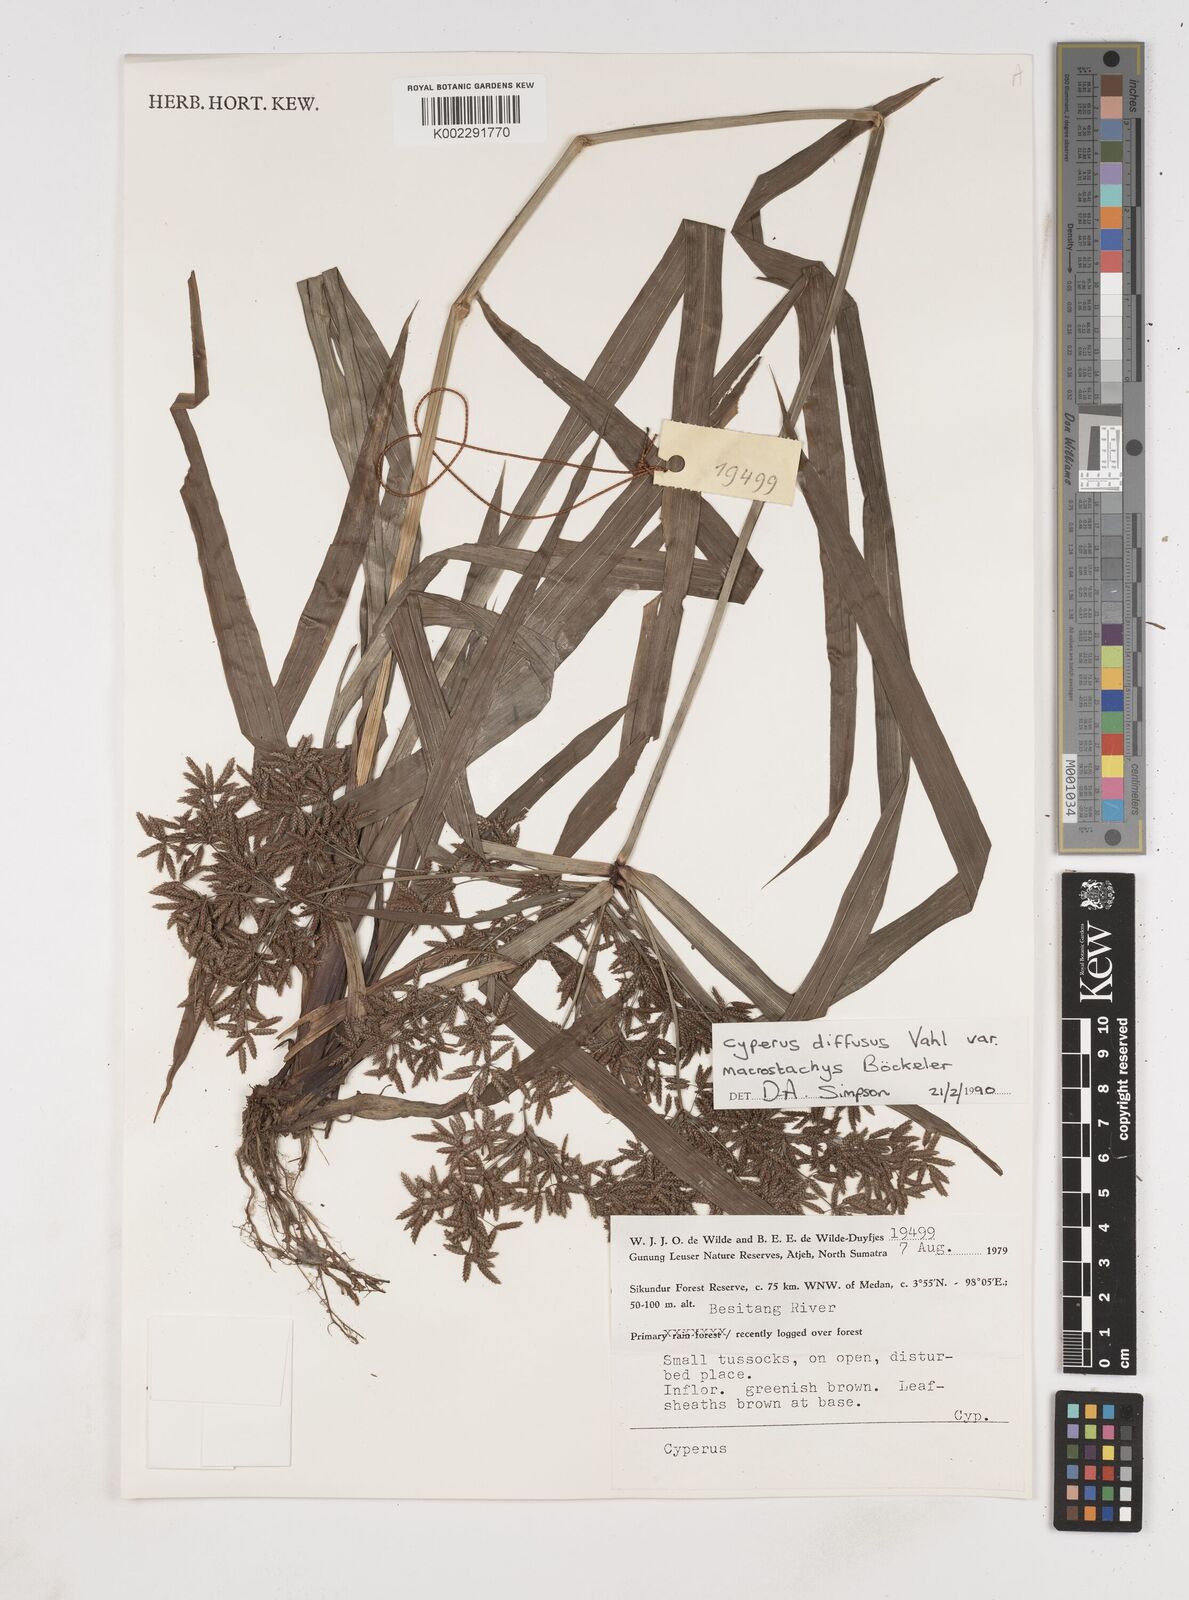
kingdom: Plantae
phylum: Tracheophyta
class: Liliopsida
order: Poales
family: Cyperaceae
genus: Cyperus
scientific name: Cyperus diffusus
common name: Dwarf umbrella grass
